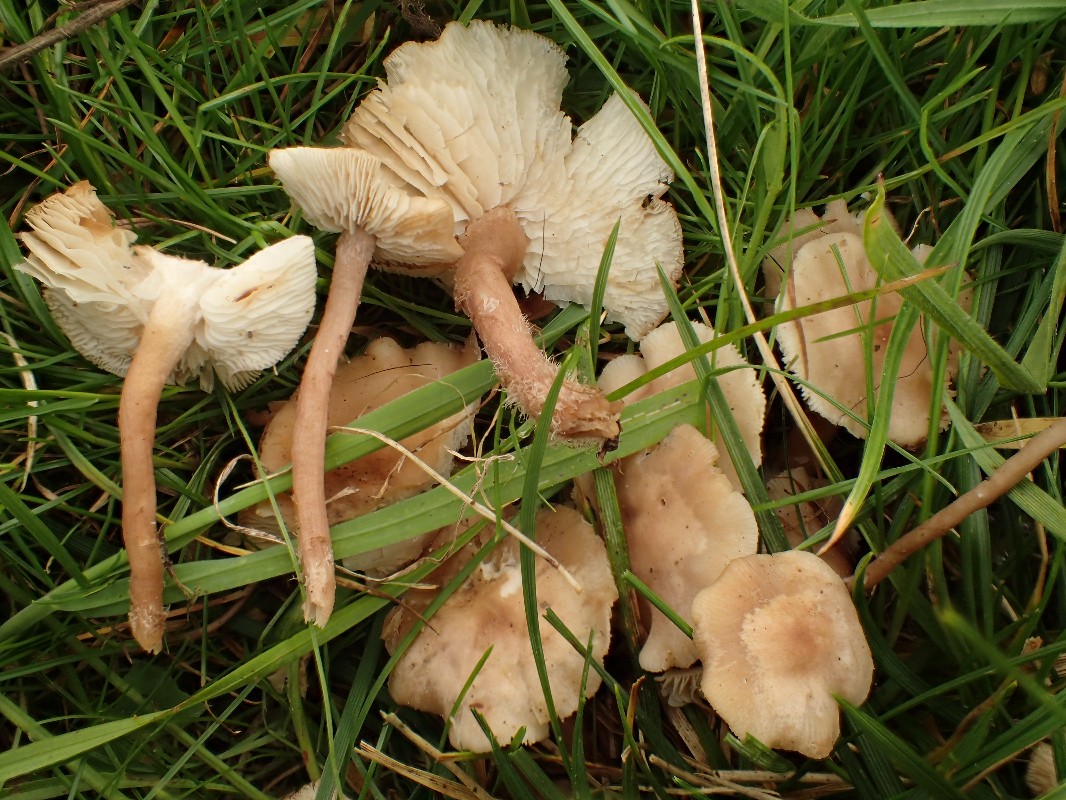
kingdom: Fungi
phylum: Basidiomycota
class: Agaricomycetes
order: Agaricales
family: Lyophyllaceae
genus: Calocybe
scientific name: Calocybe carnea
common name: rosa fagerhat
